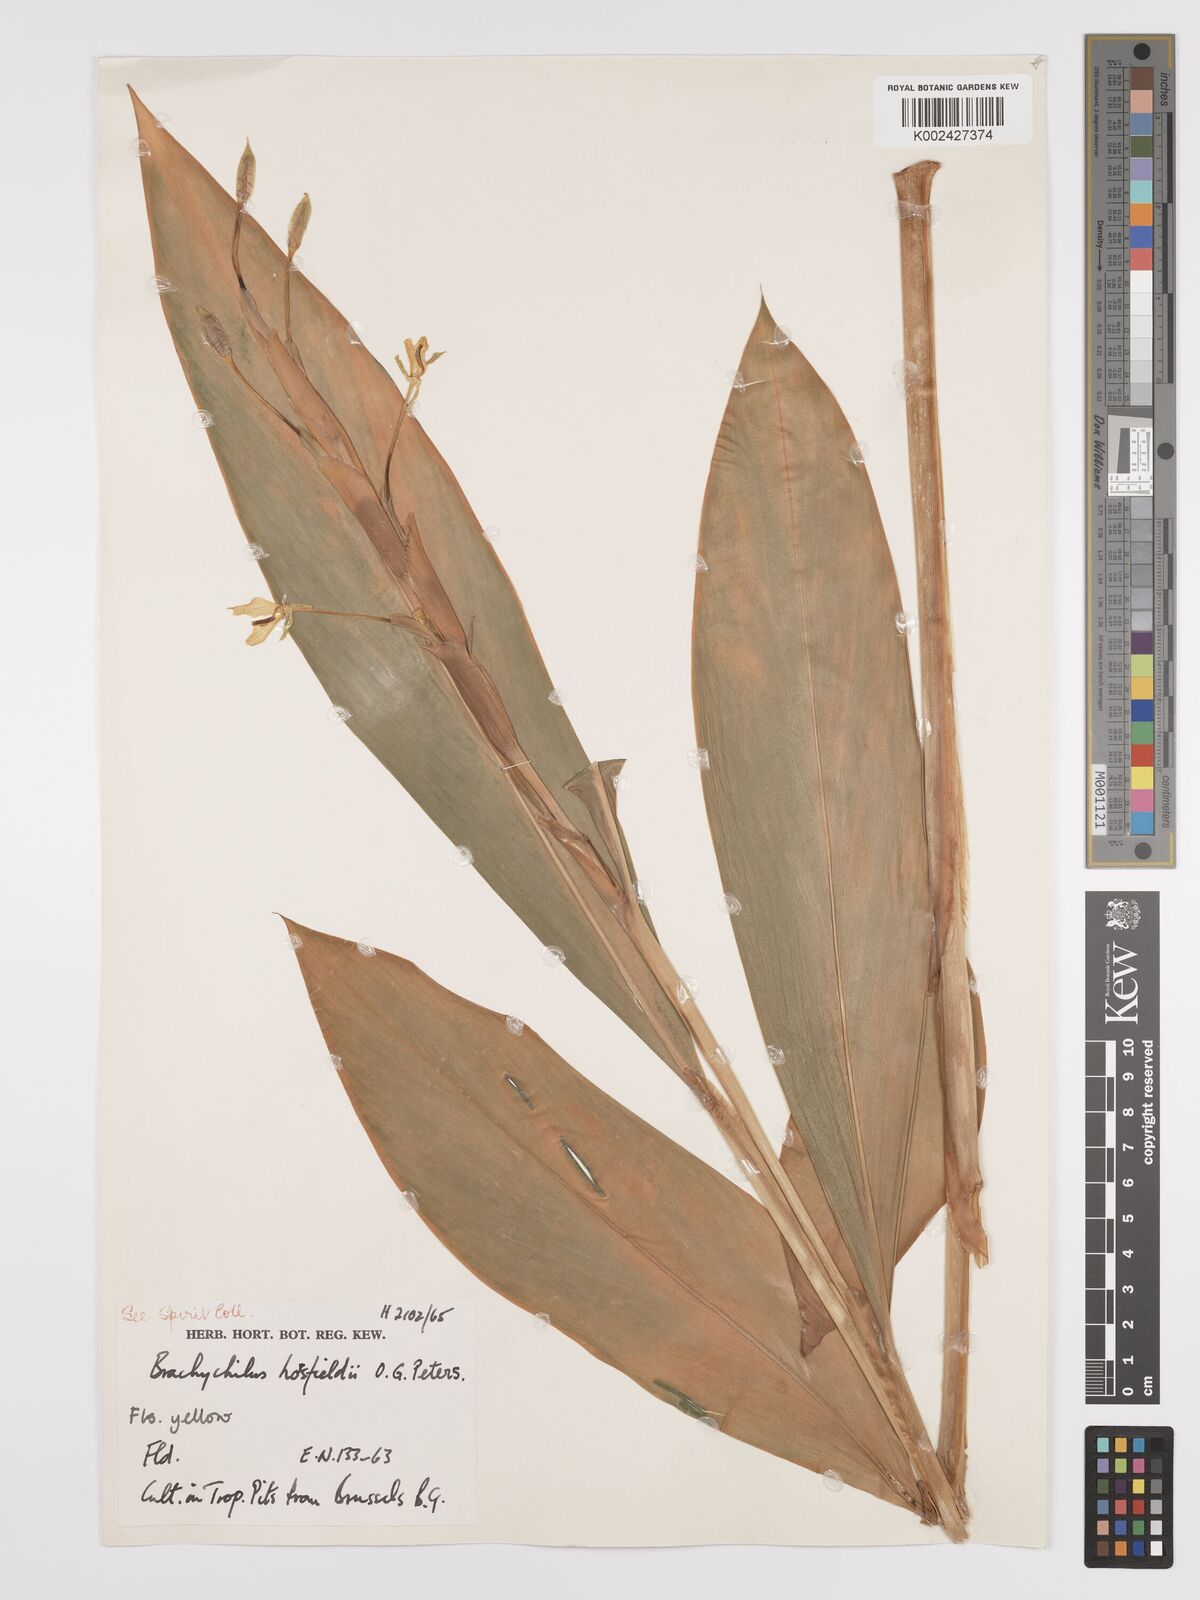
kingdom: Plantae
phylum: Tracheophyta
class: Liliopsida
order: Zingiberales
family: Zingiberaceae
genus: Hedychium
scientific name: Hedychium horsfieldii
